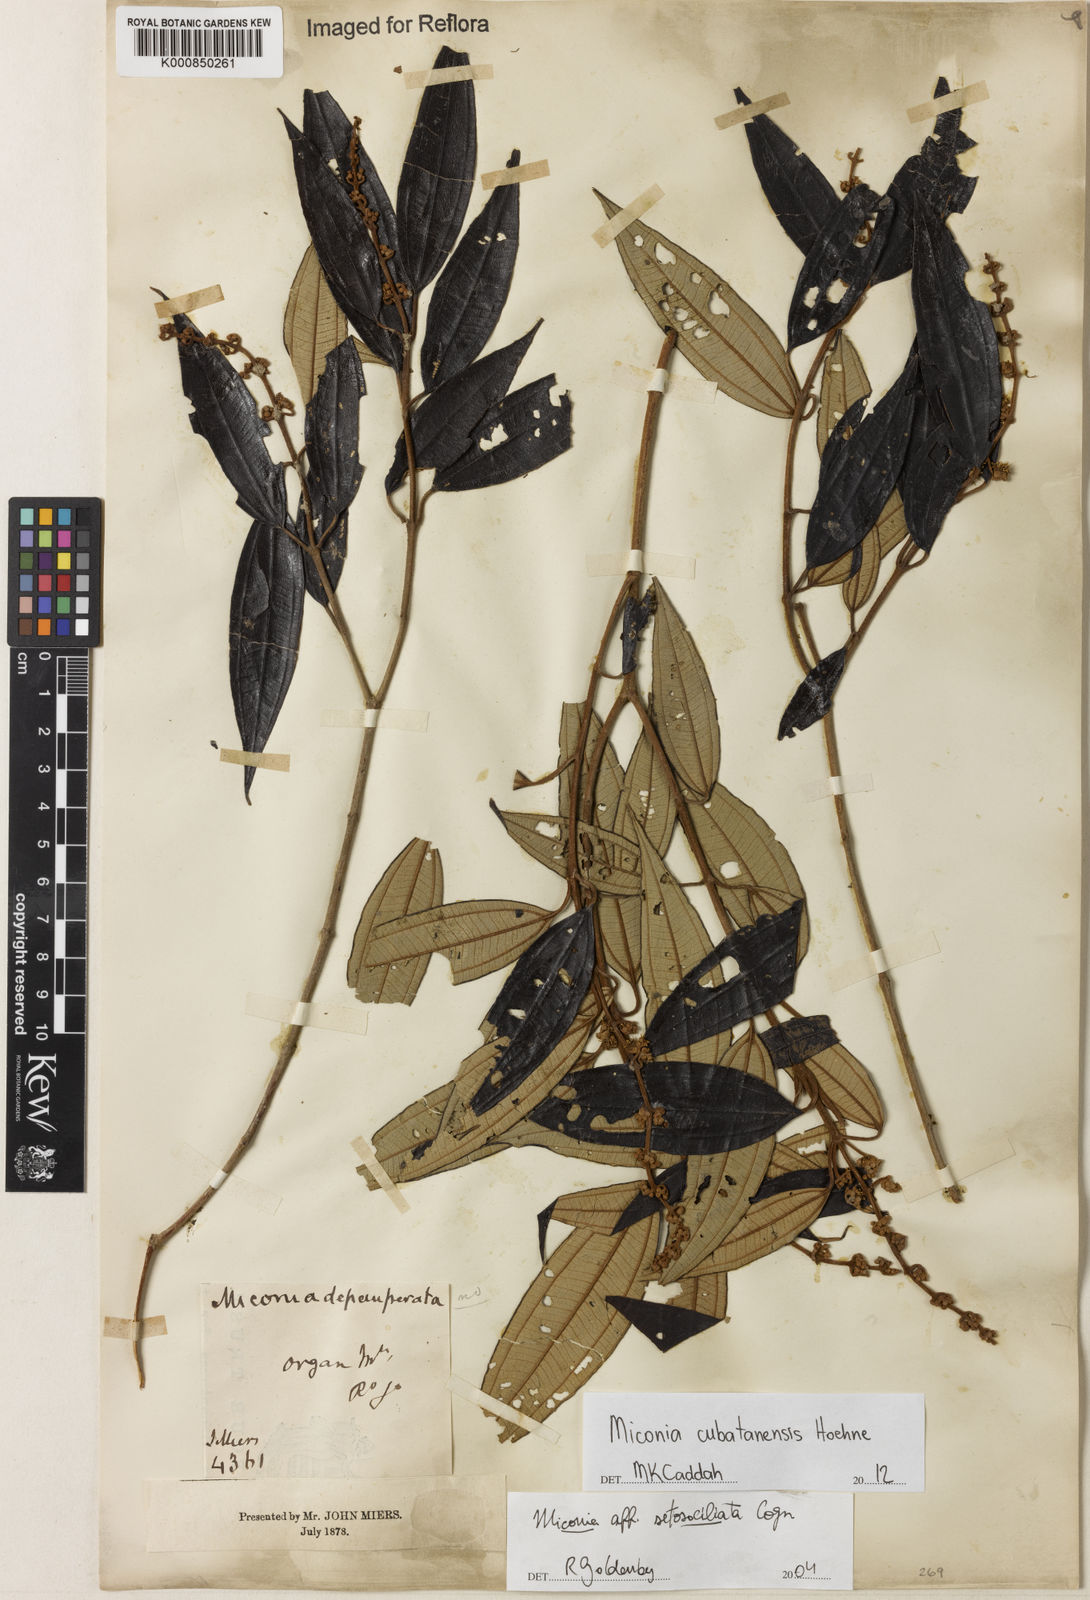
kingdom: Plantae
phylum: Tracheophyta
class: Magnoliopsida
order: Myrtales
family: Melastomataceae
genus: Miconia
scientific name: Miconia cubatanensis
